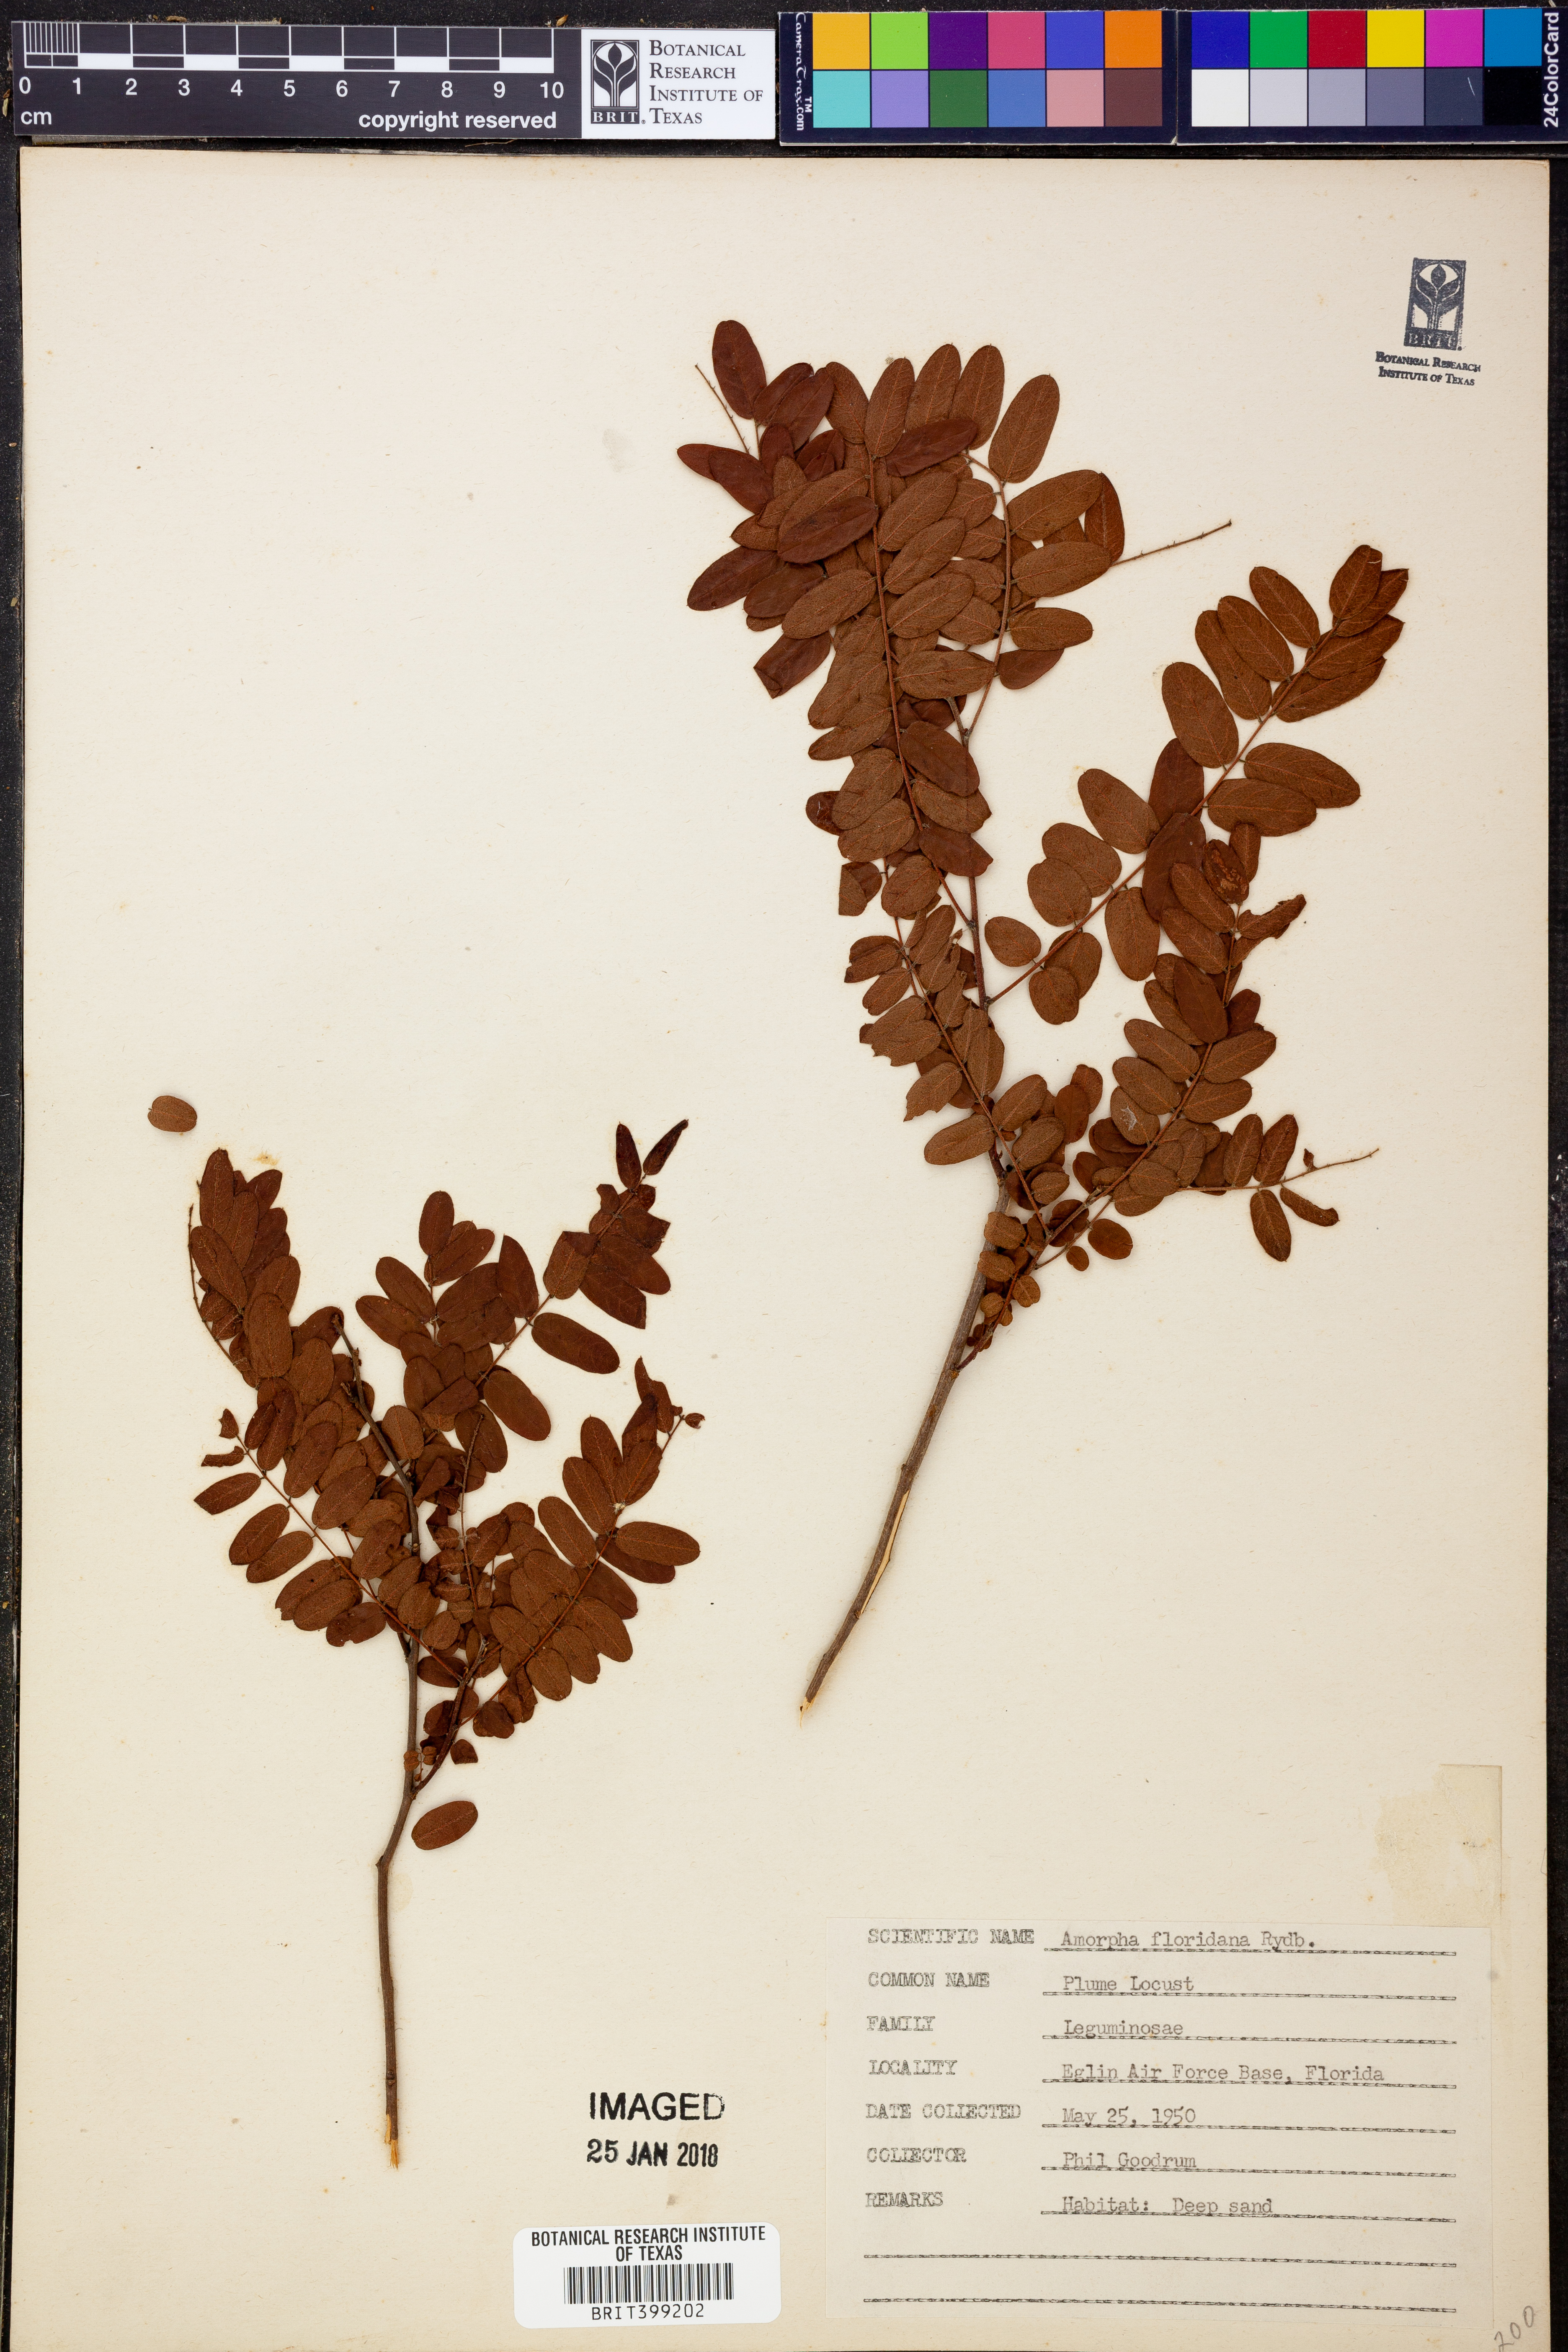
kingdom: Plantae
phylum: Tracheophyta
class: Magnoliopsida
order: Fabales
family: Fabaceae
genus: Amorpha
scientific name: Amorpha herbacea
